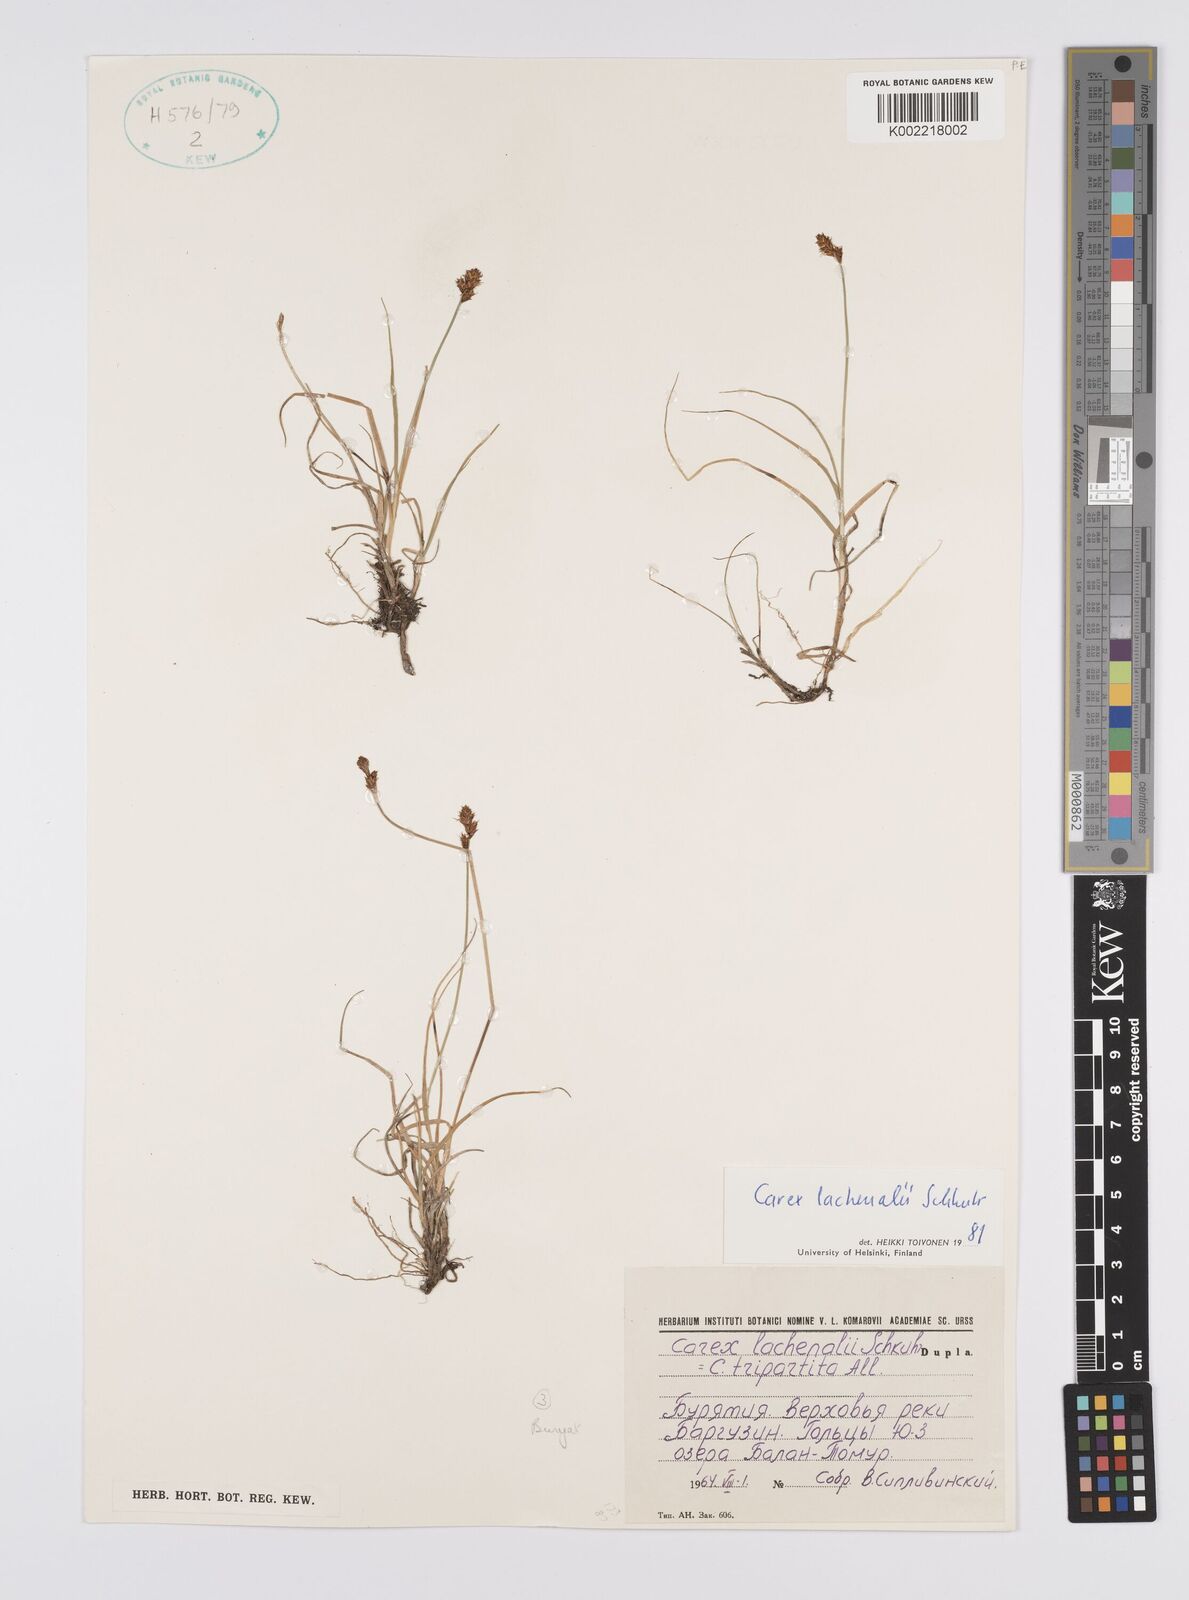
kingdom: Plantae
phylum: Tracheophyta
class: Liliopsida
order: Poales
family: Cyperaceae
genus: Carex
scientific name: Carex lachenalii
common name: Hare's-foot sedge
